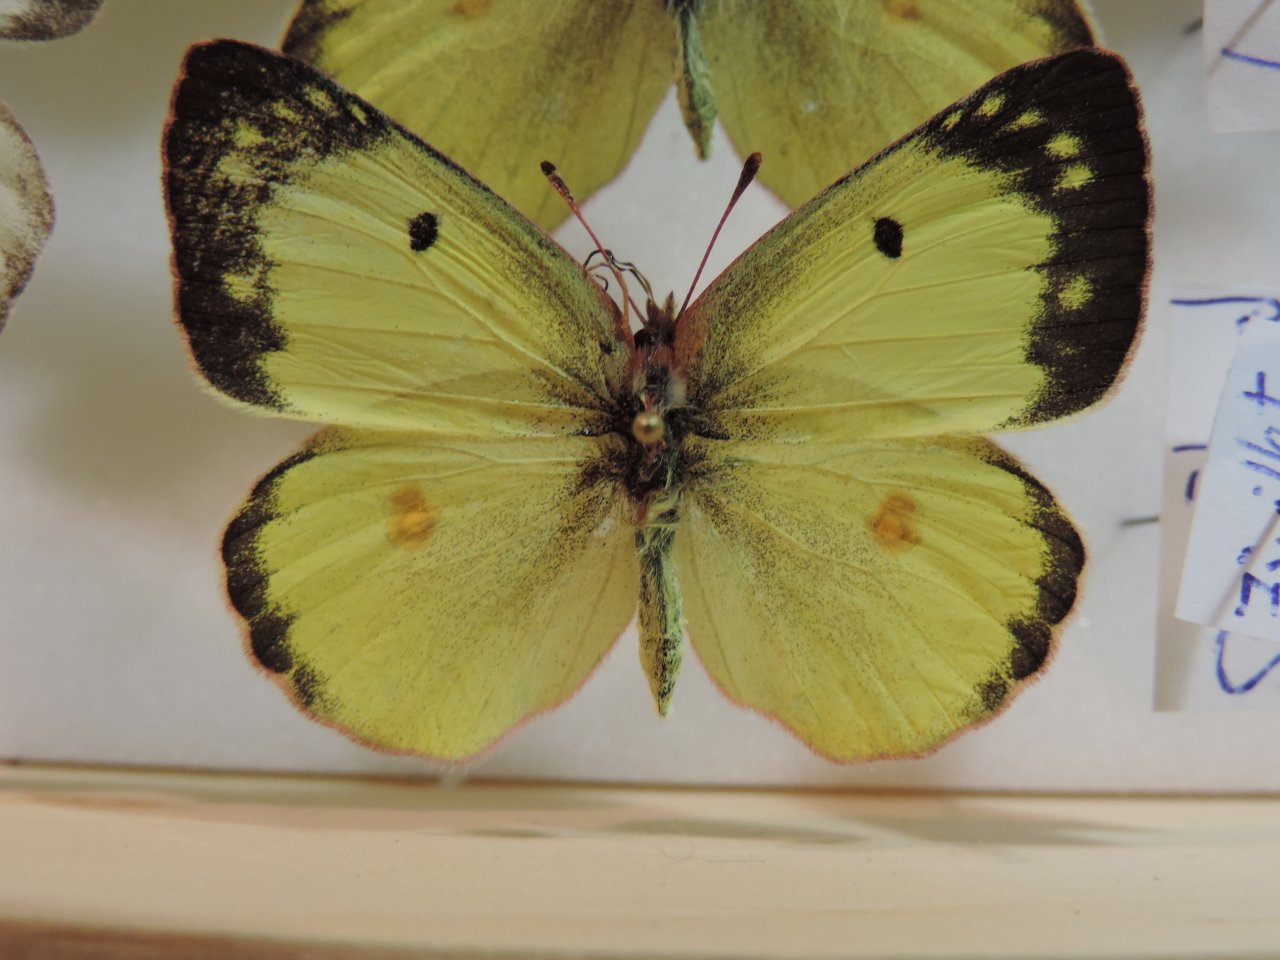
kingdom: Animalia
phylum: Arthropoda
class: Insecta
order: Lepidoptera
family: Pieridae
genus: Colias
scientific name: Colias philodice
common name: Clouded Sulphur
